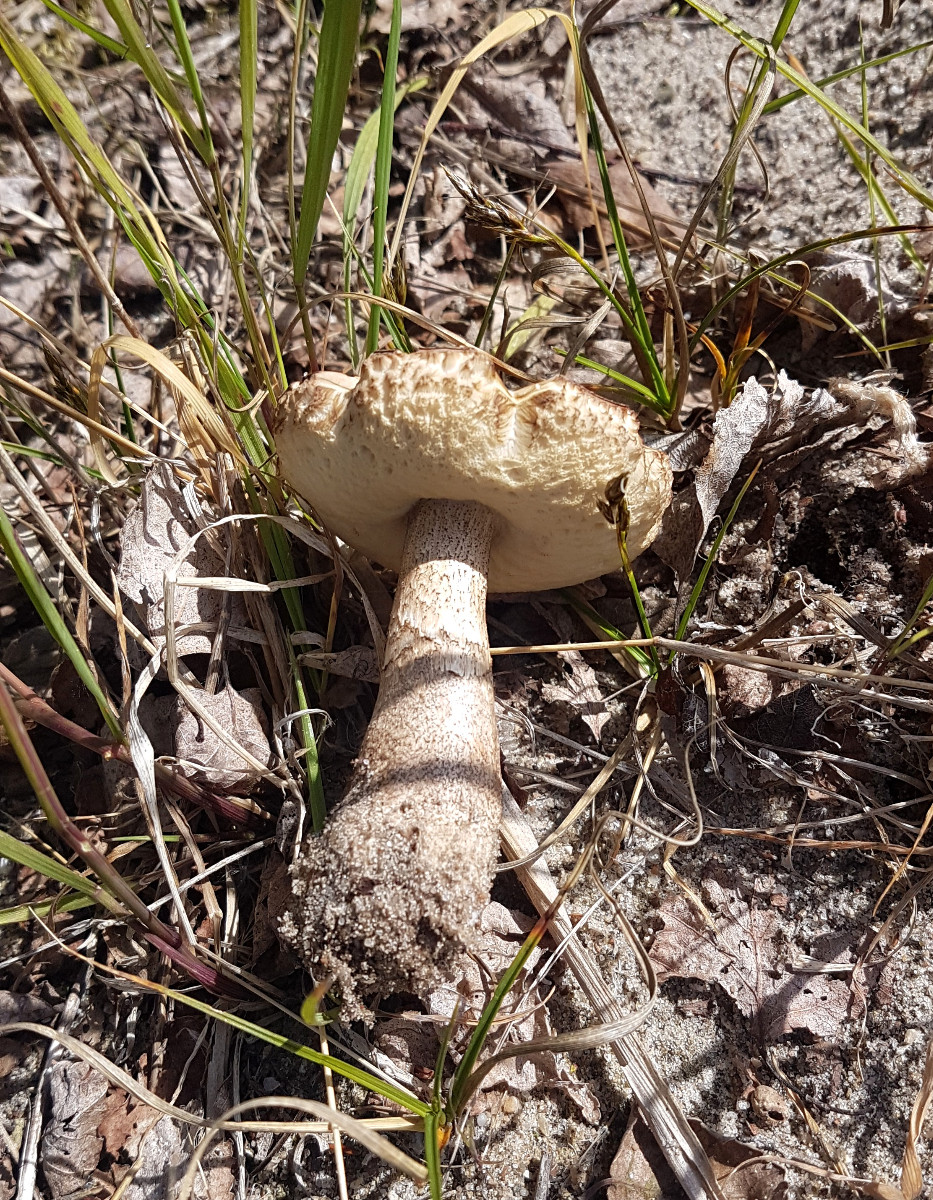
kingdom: Fungi
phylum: Basidiomycota
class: Agaricomycetes
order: Boletales
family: Boletaceae
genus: Leccinum
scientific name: Leccinum scabrum
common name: brun skælrørhat
